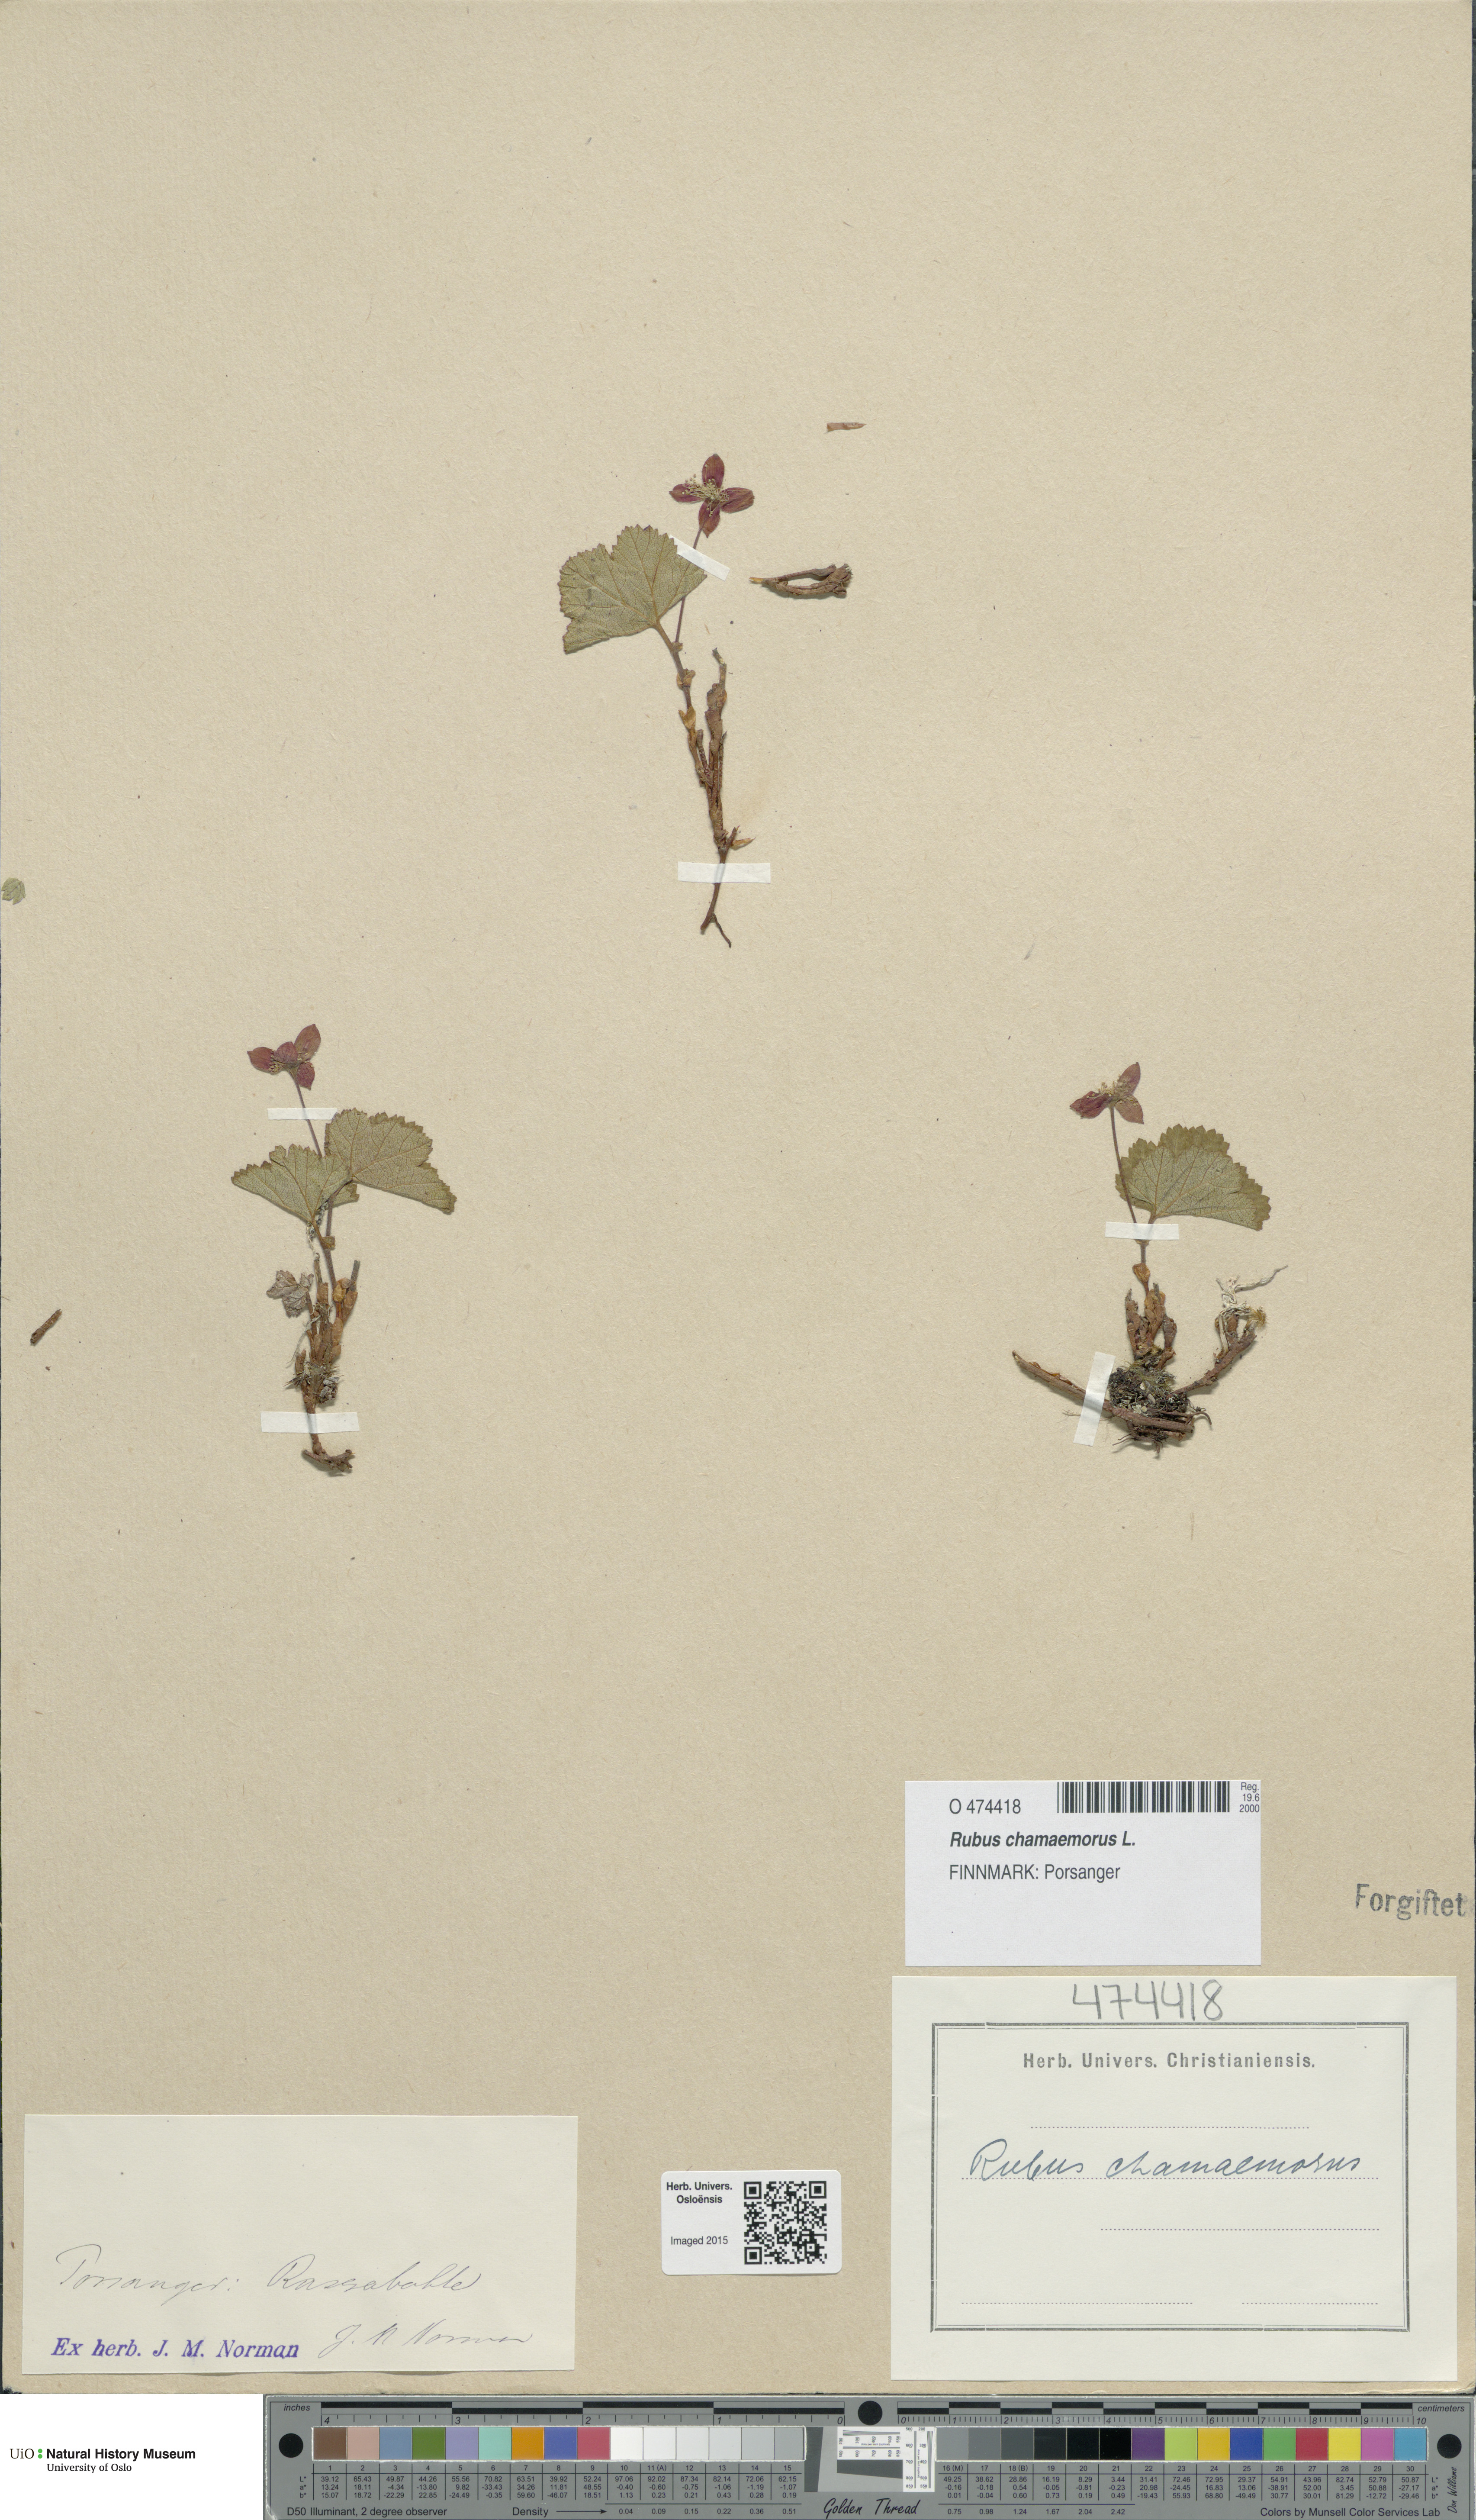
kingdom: Plantae
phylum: Tracheophyta
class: Magnoliopsida
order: Rosales
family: Rosaceae
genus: Rubus
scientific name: Rubus chamaemorus
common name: Cloudberry
